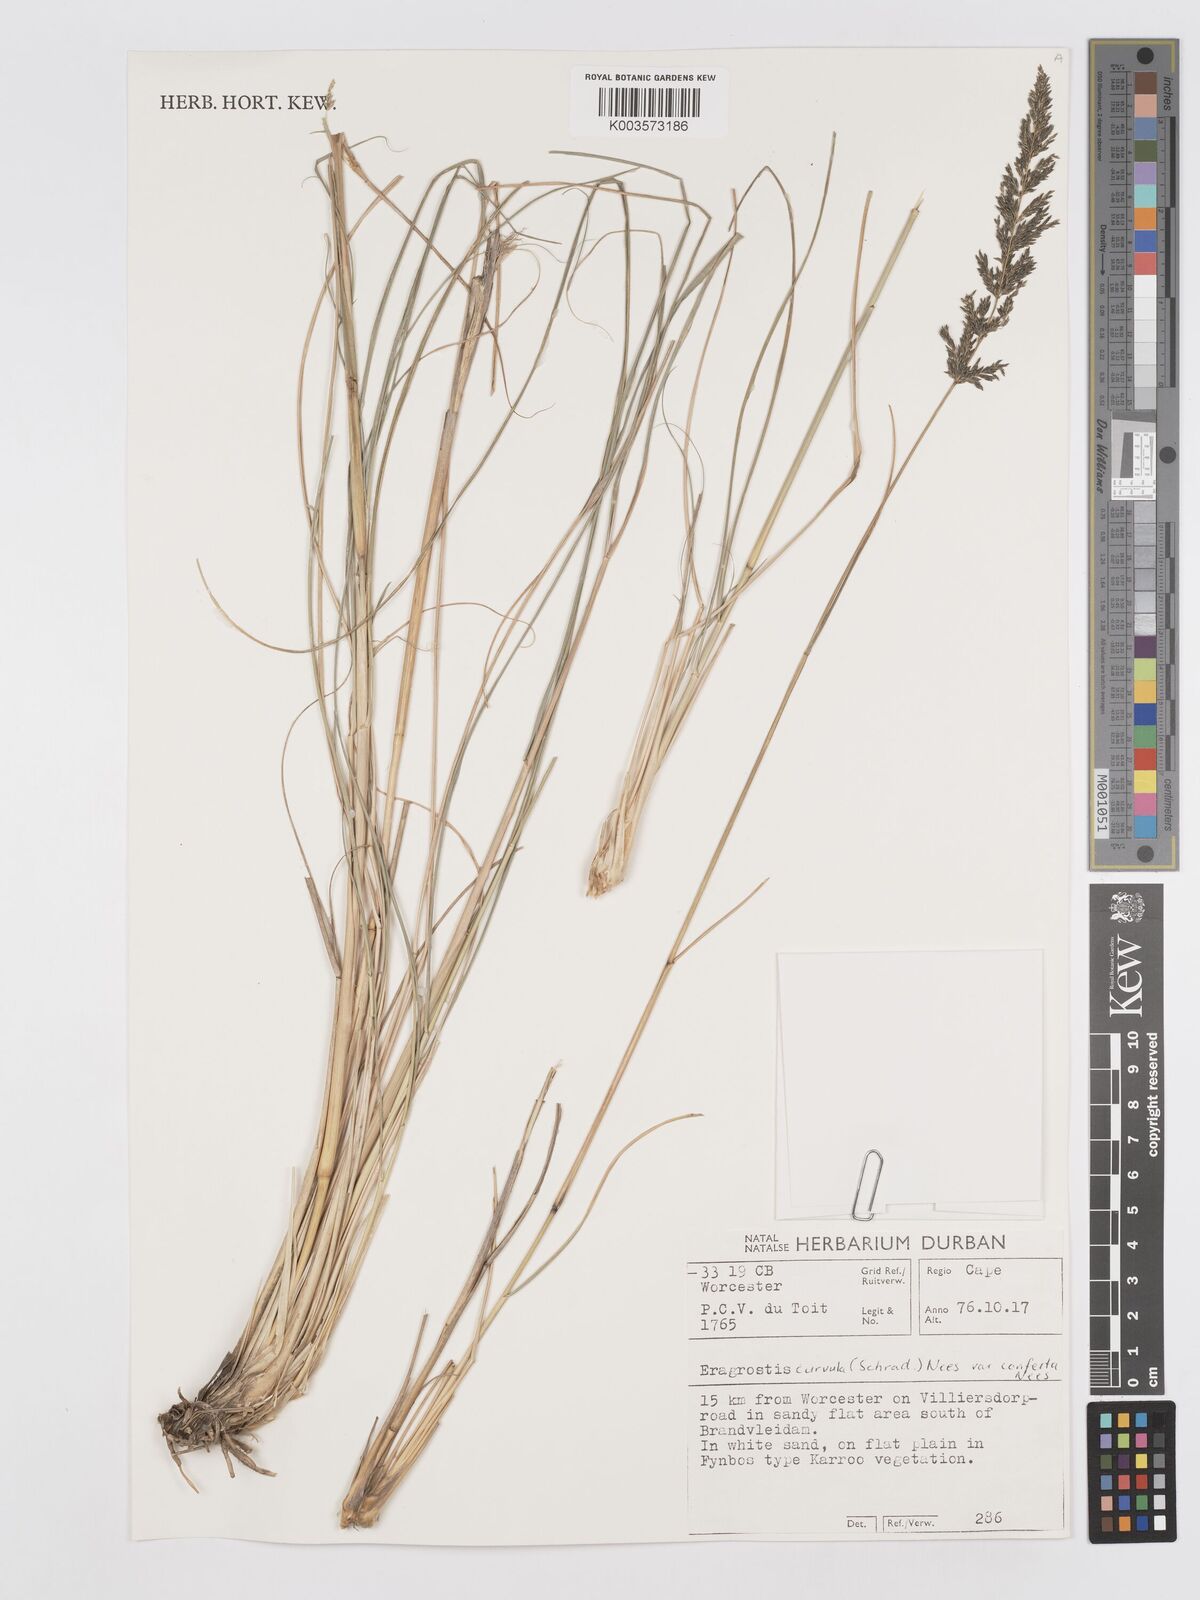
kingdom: Plantae
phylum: Tracheophyta
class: Liliopsida
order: Poales
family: Poaceae
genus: Eragrostis
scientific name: Eragrostis curvula
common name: African love-grass
